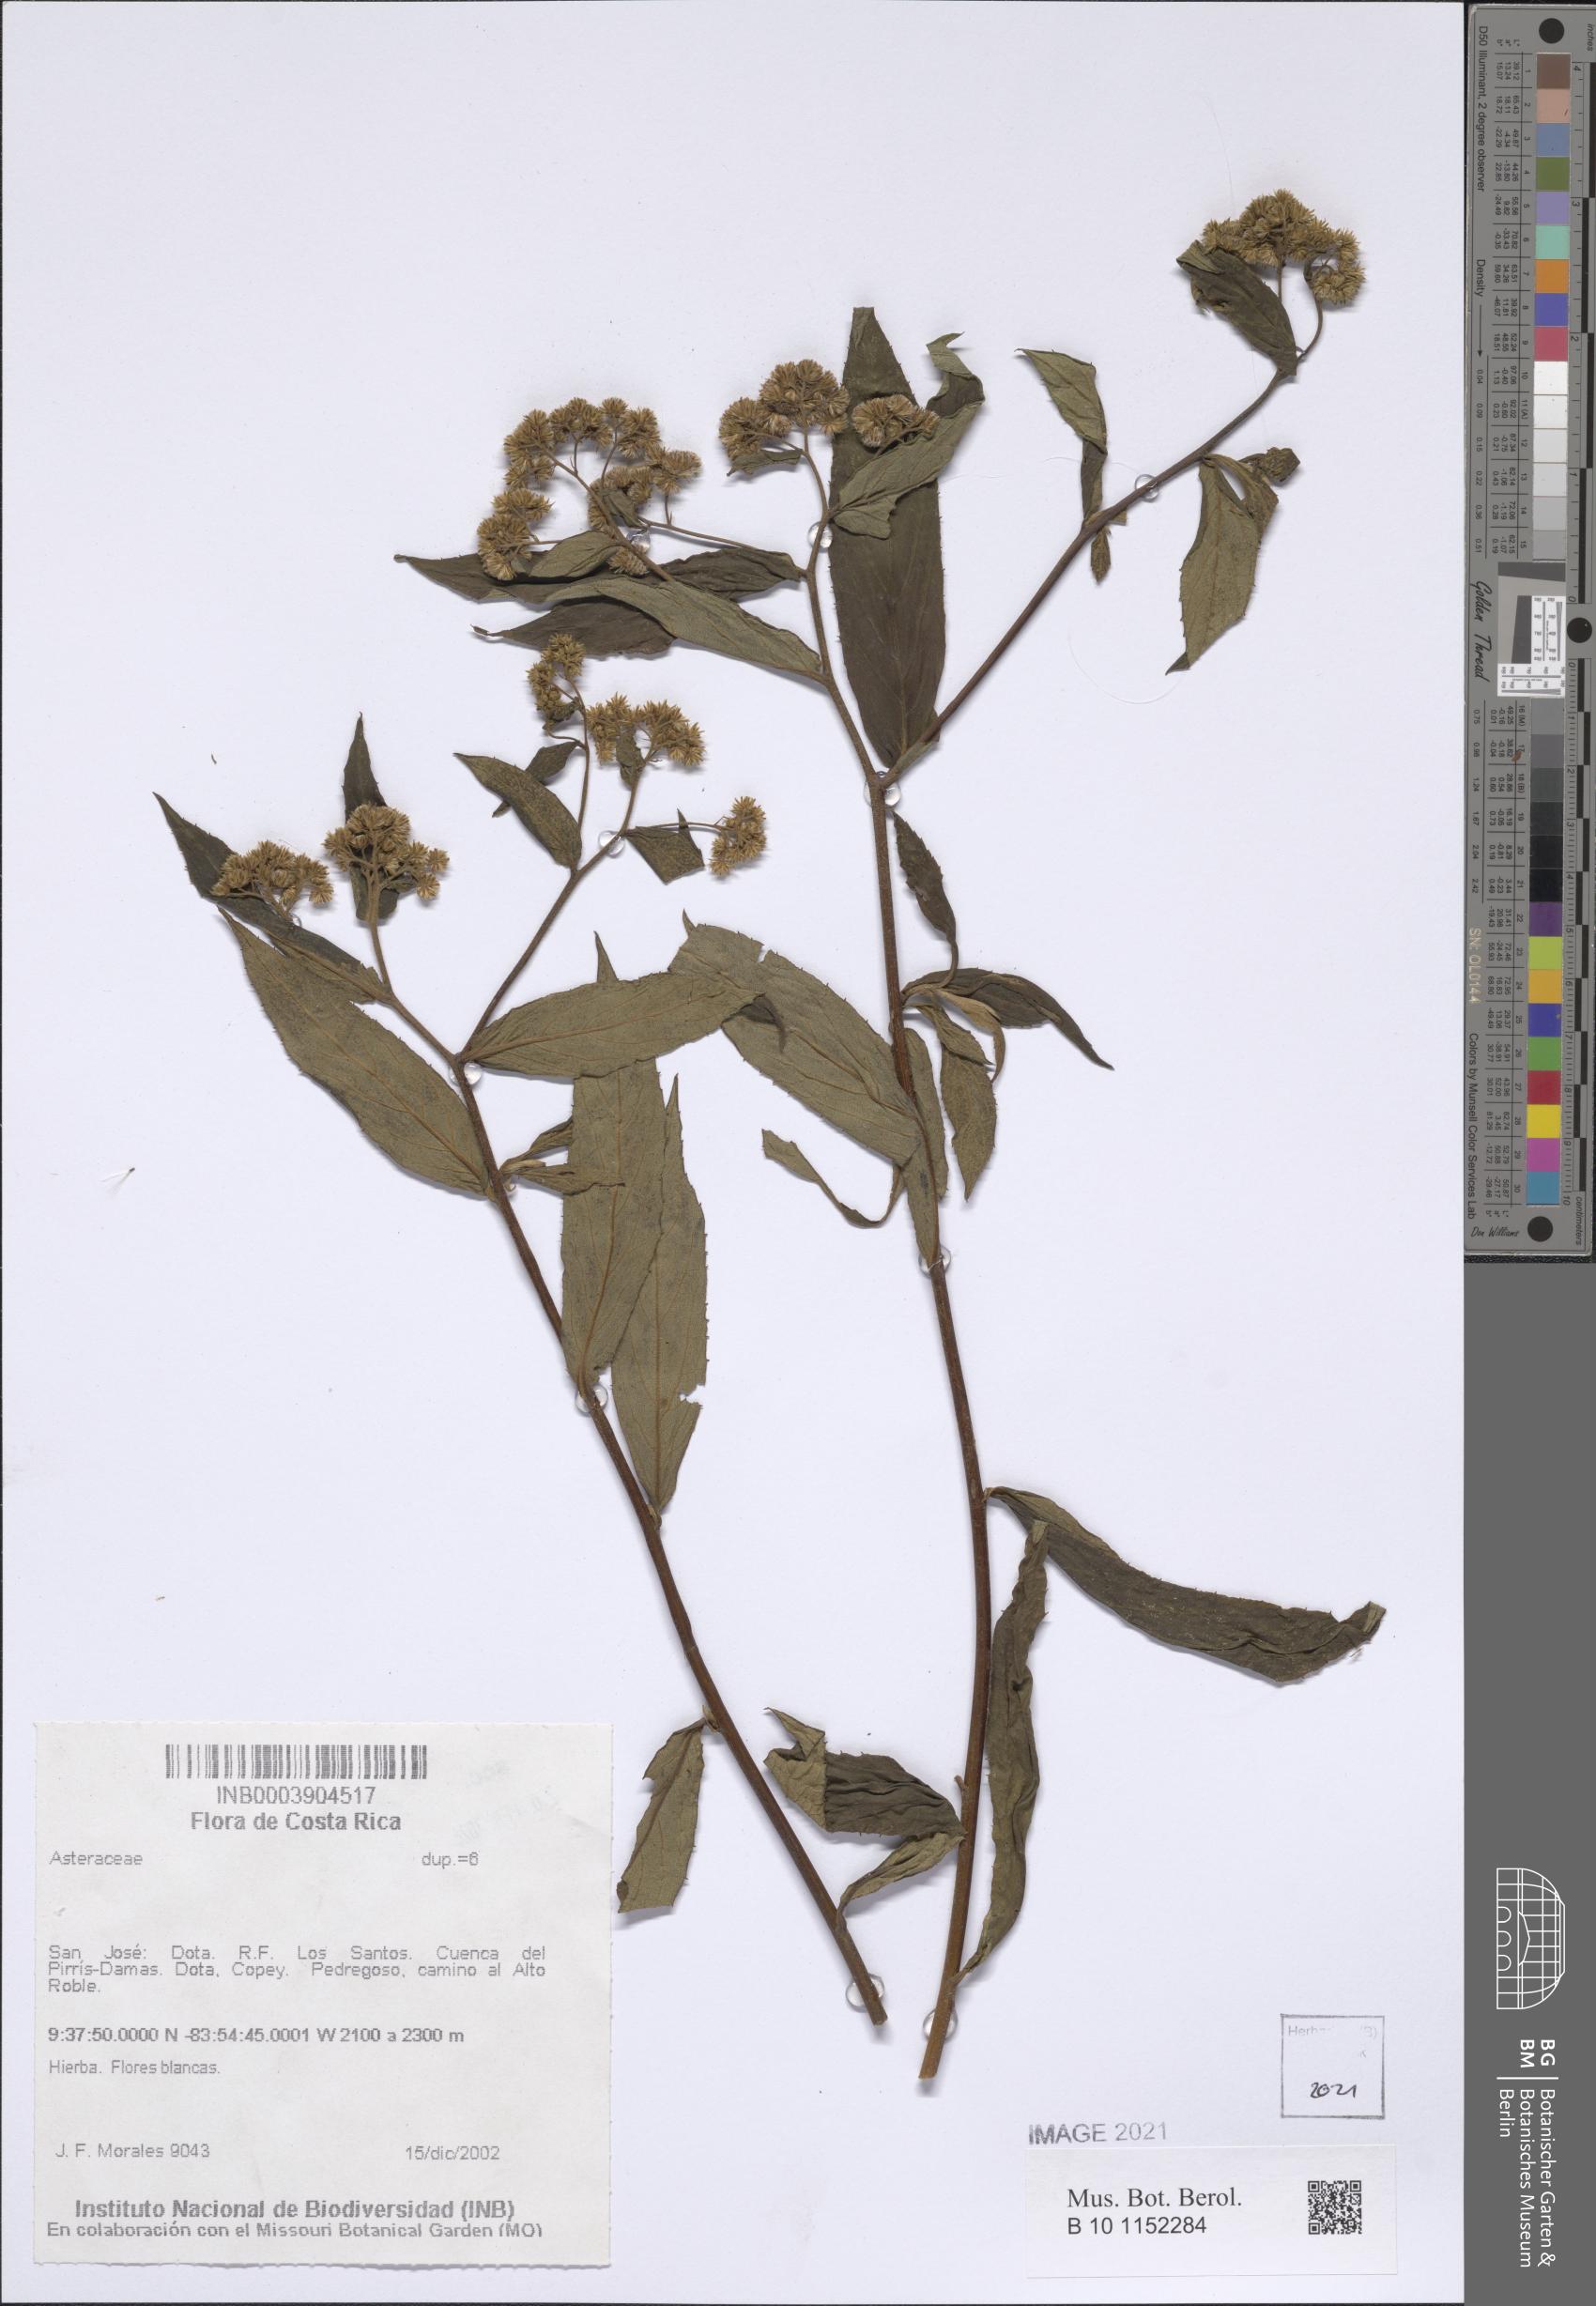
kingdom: Plantae
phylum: Tracheophyta
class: Magnoliopsida
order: Asterales
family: Asteraceae
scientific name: Asteraceae
